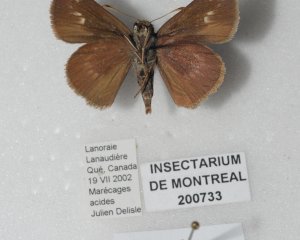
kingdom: Animalia
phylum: Arthropoda
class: Insecta
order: Lepidoptera
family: Hesperiidae
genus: Euphyes
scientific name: Euphyes vestris
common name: Dun Skipper
